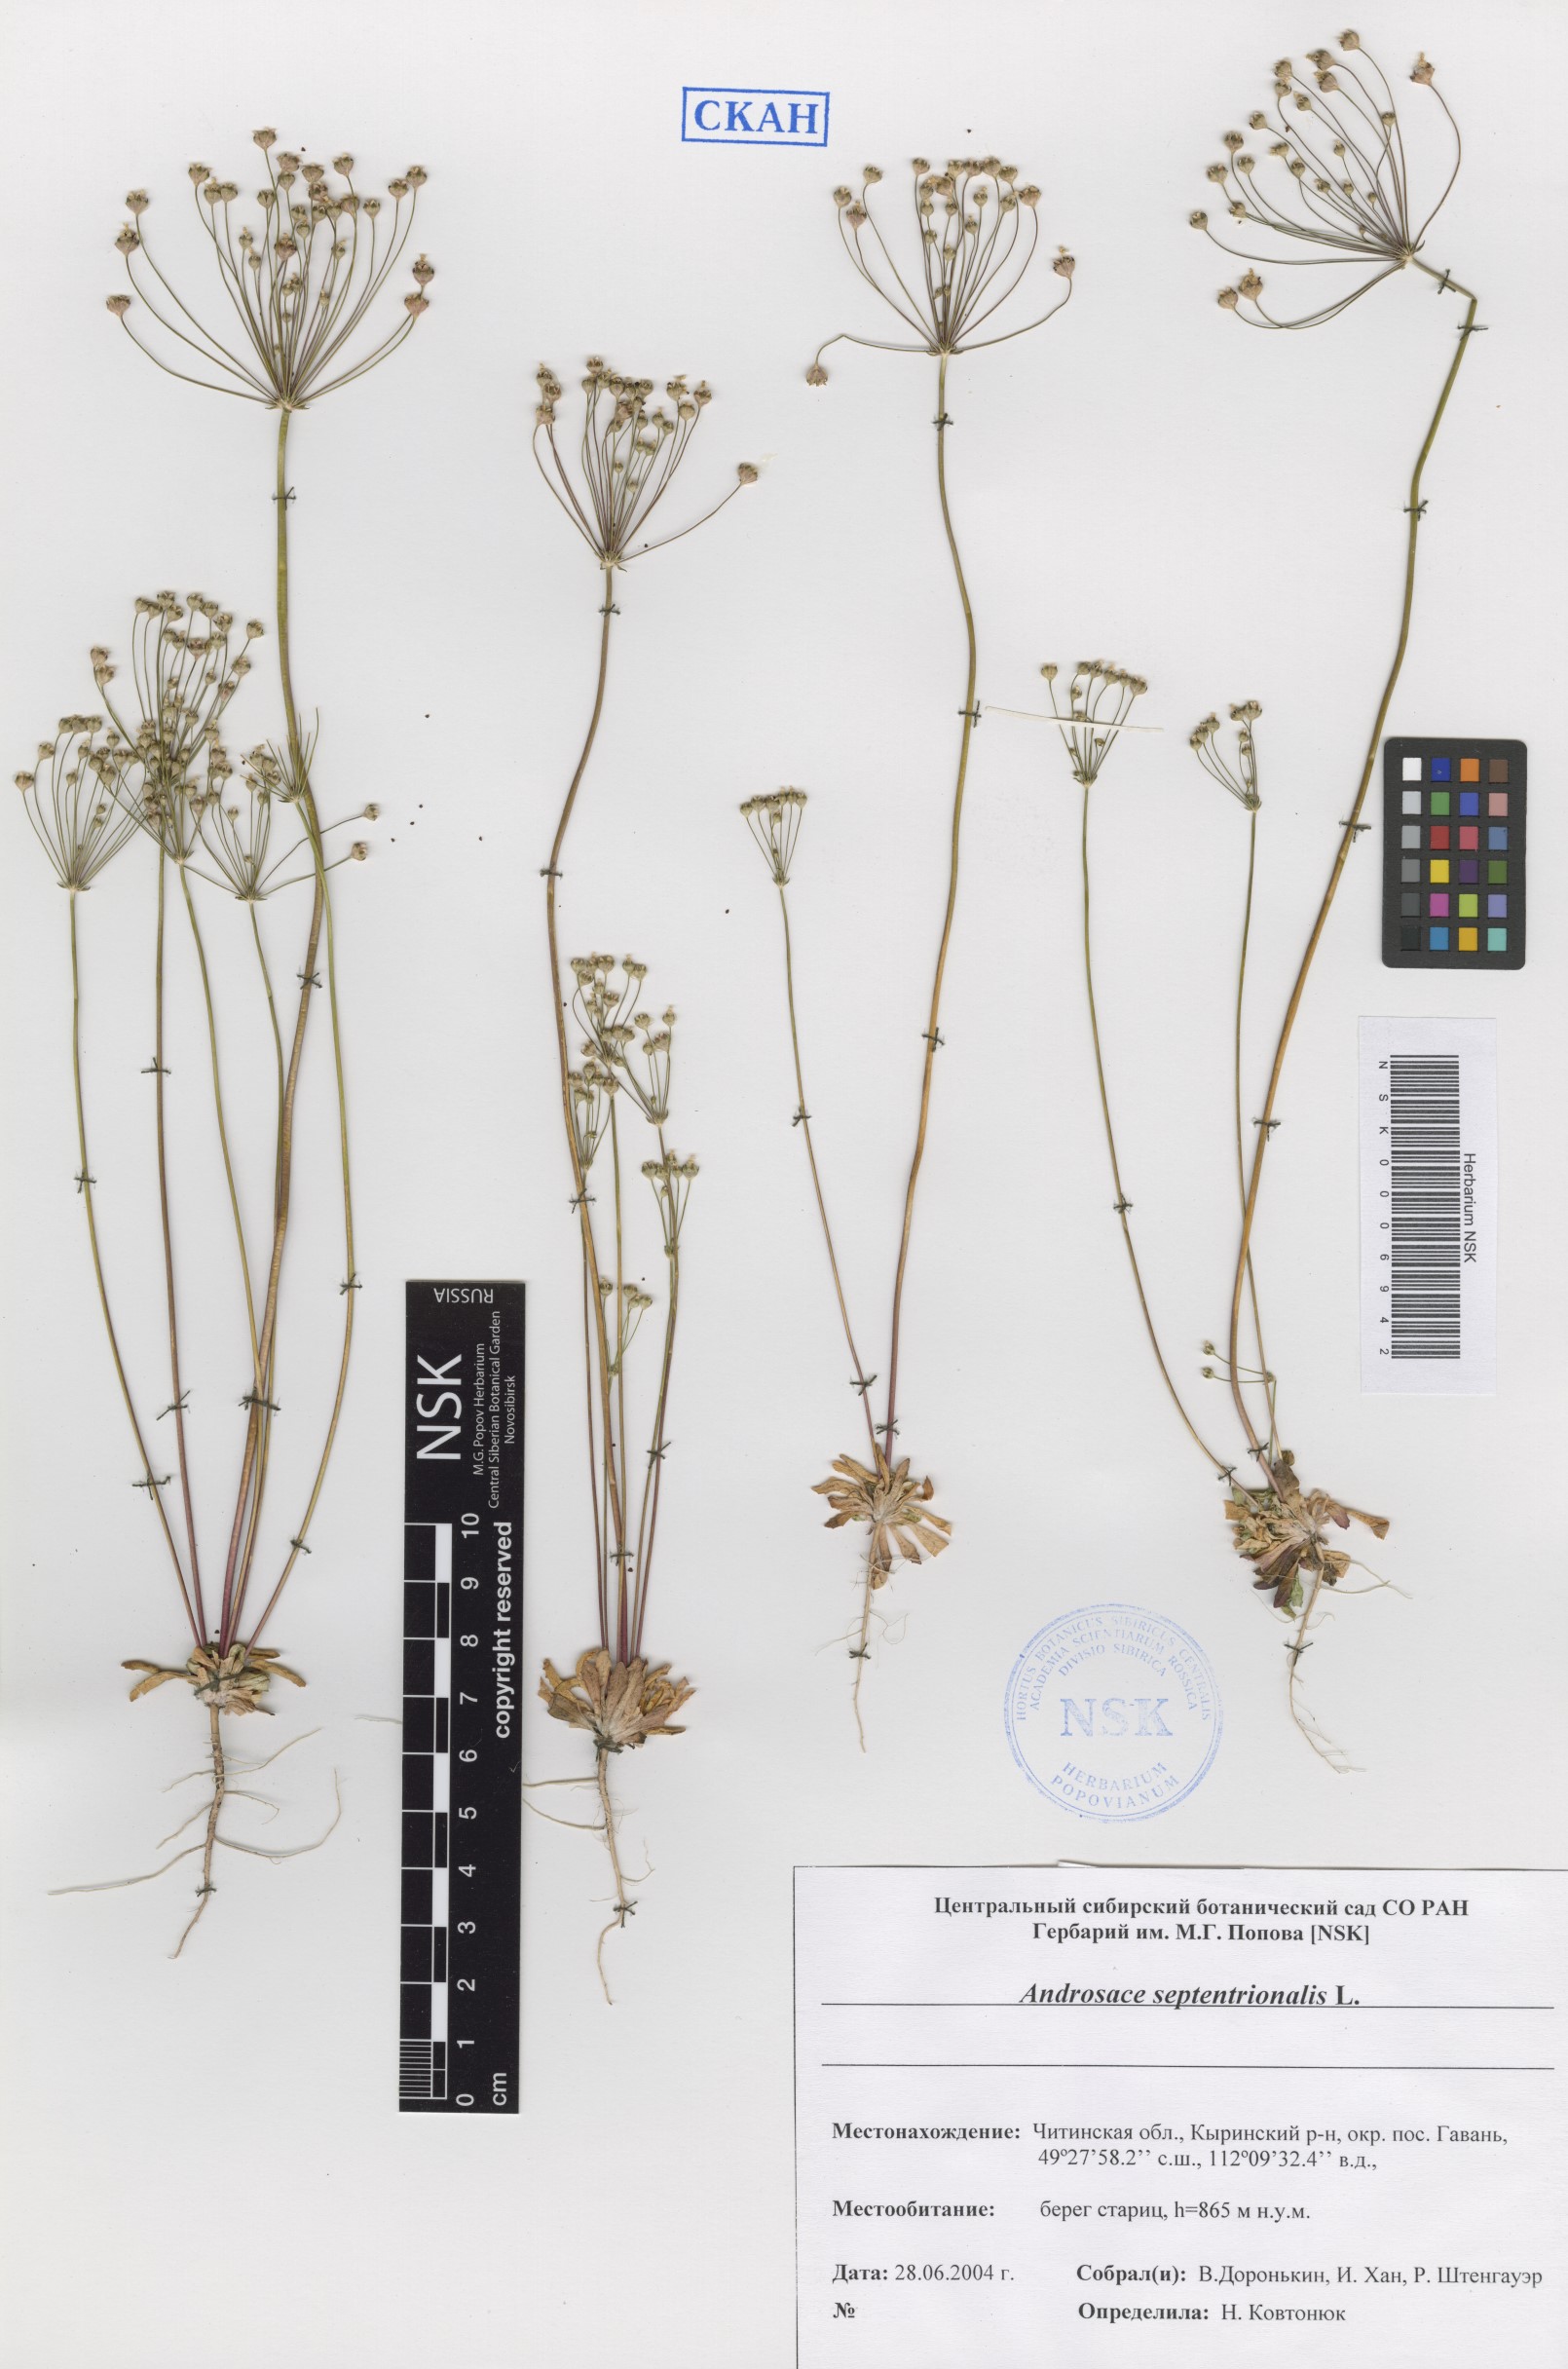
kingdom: Plantae
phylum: Tracheophyta
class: Magnoliopsida
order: Ericales
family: Primulaceae
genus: Androsace
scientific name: Androsace septentrionalis
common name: Hairy northern fairy-candelabra
